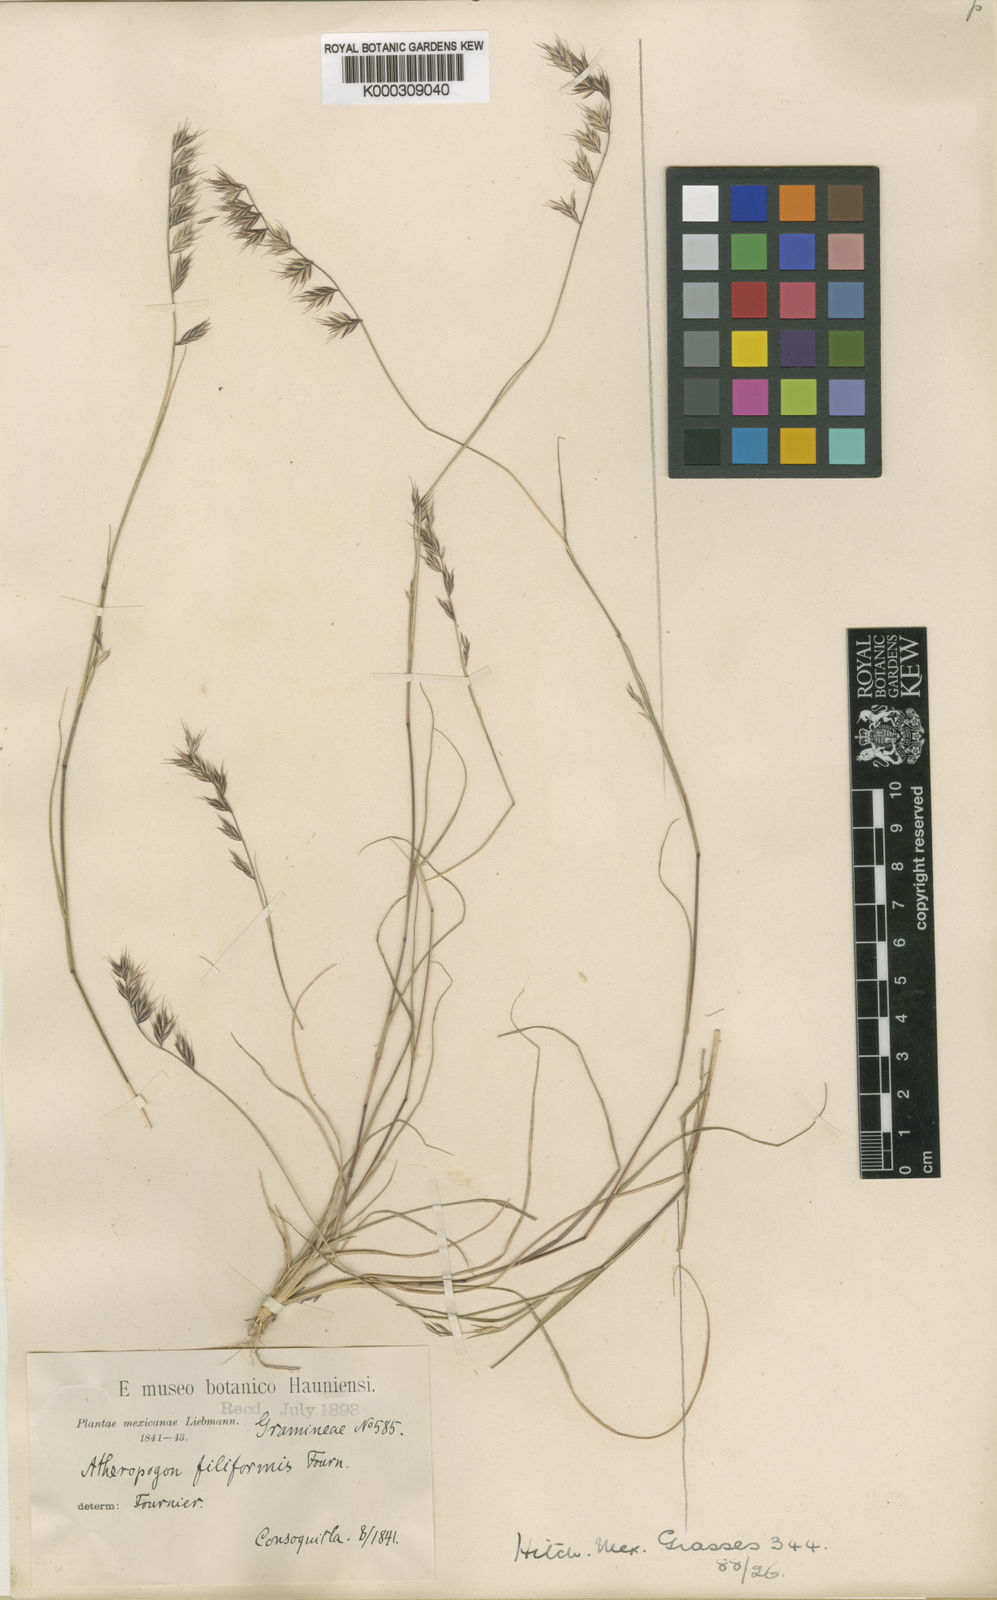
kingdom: Plantae
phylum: Tracheophyta
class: Liliopsida
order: Poales
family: Poaceae
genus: Bouteloua
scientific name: Bouteloua repens
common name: Slender grama
